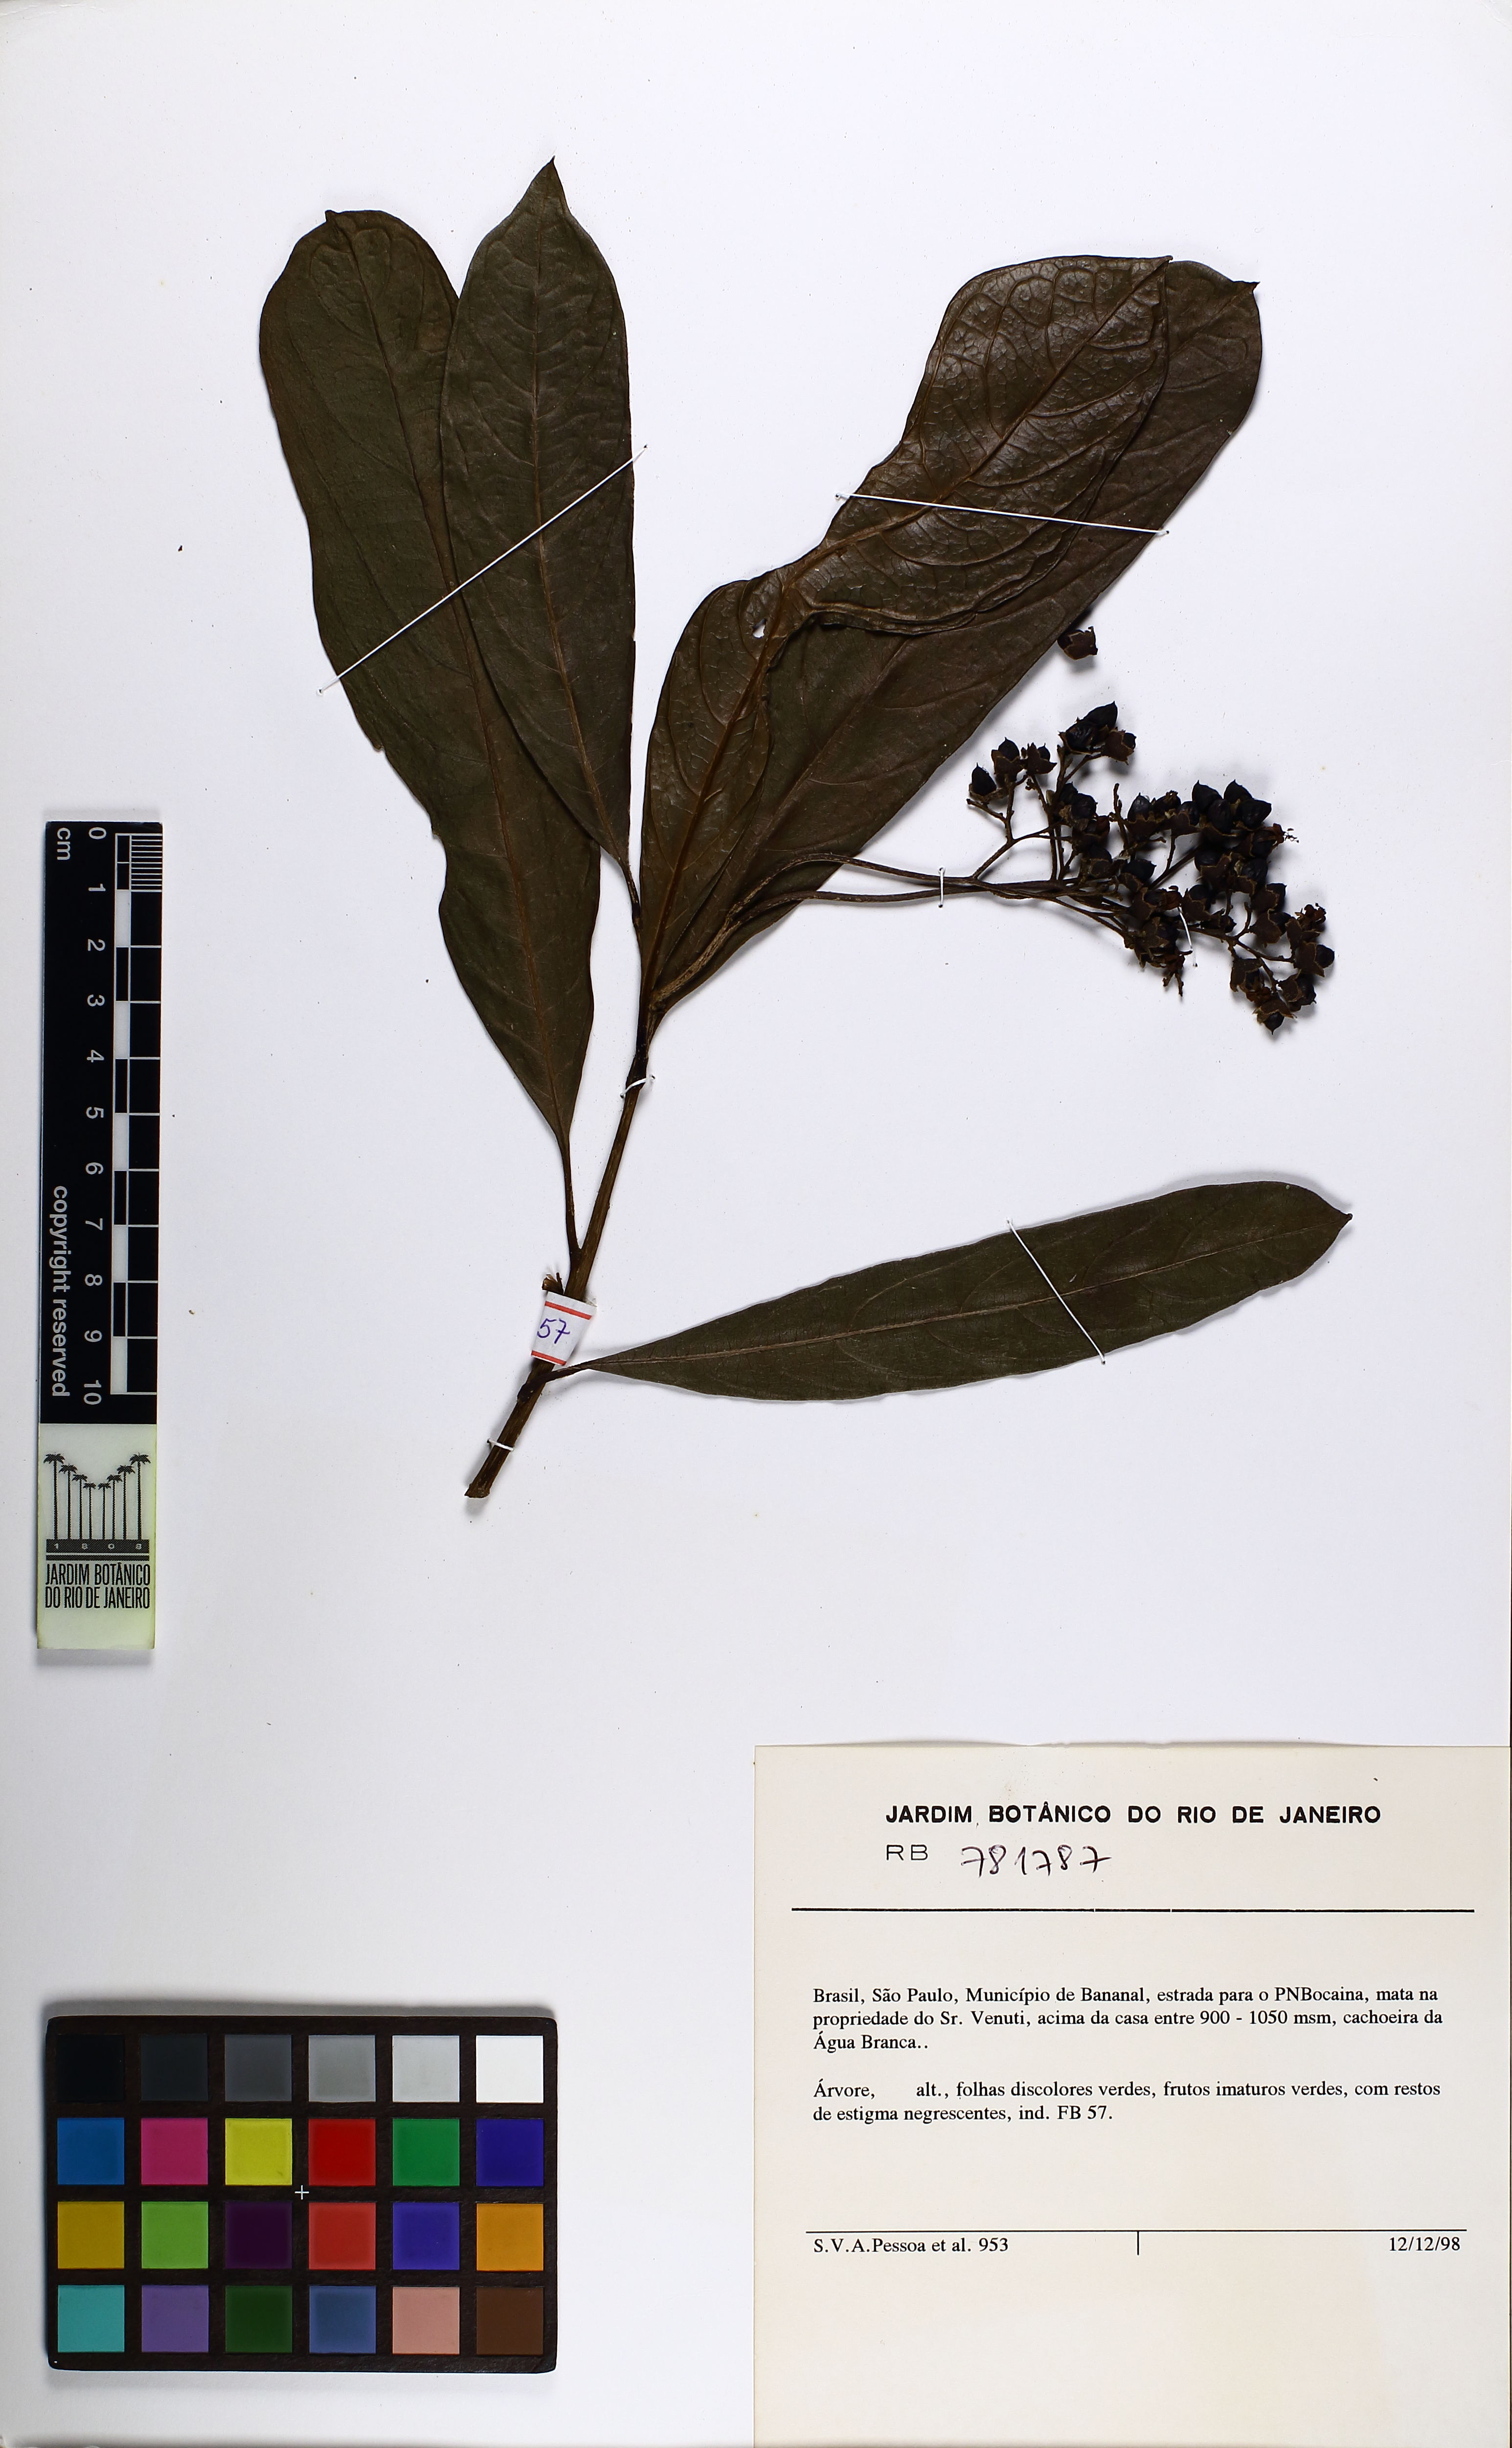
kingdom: Plantae
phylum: Tracheophyta
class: Magnoliopsida
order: Boraginales
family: Cordiaceae
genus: Cordia
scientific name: Cordia magnoliifolia
